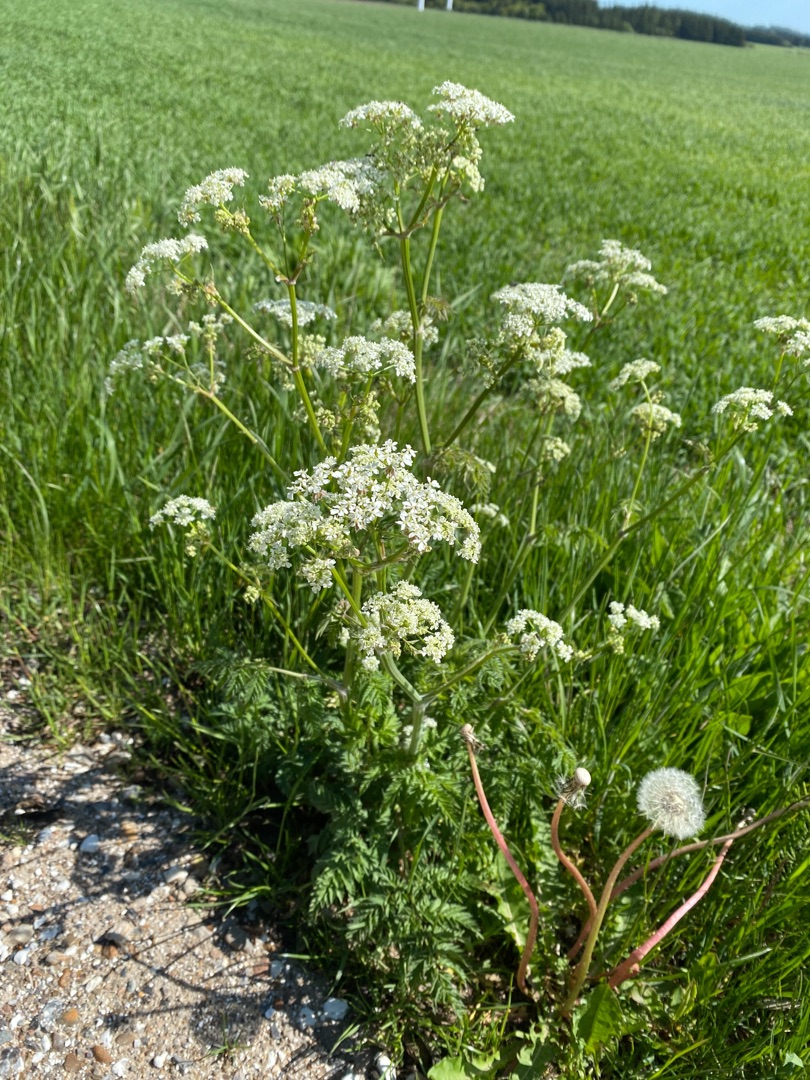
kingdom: Plantae
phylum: Tracheophyta
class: Magnoliopsida
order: Apiales
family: Apiaceae
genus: Anthriscus
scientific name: Anthriscus sylvestris
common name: Vild kørvel
